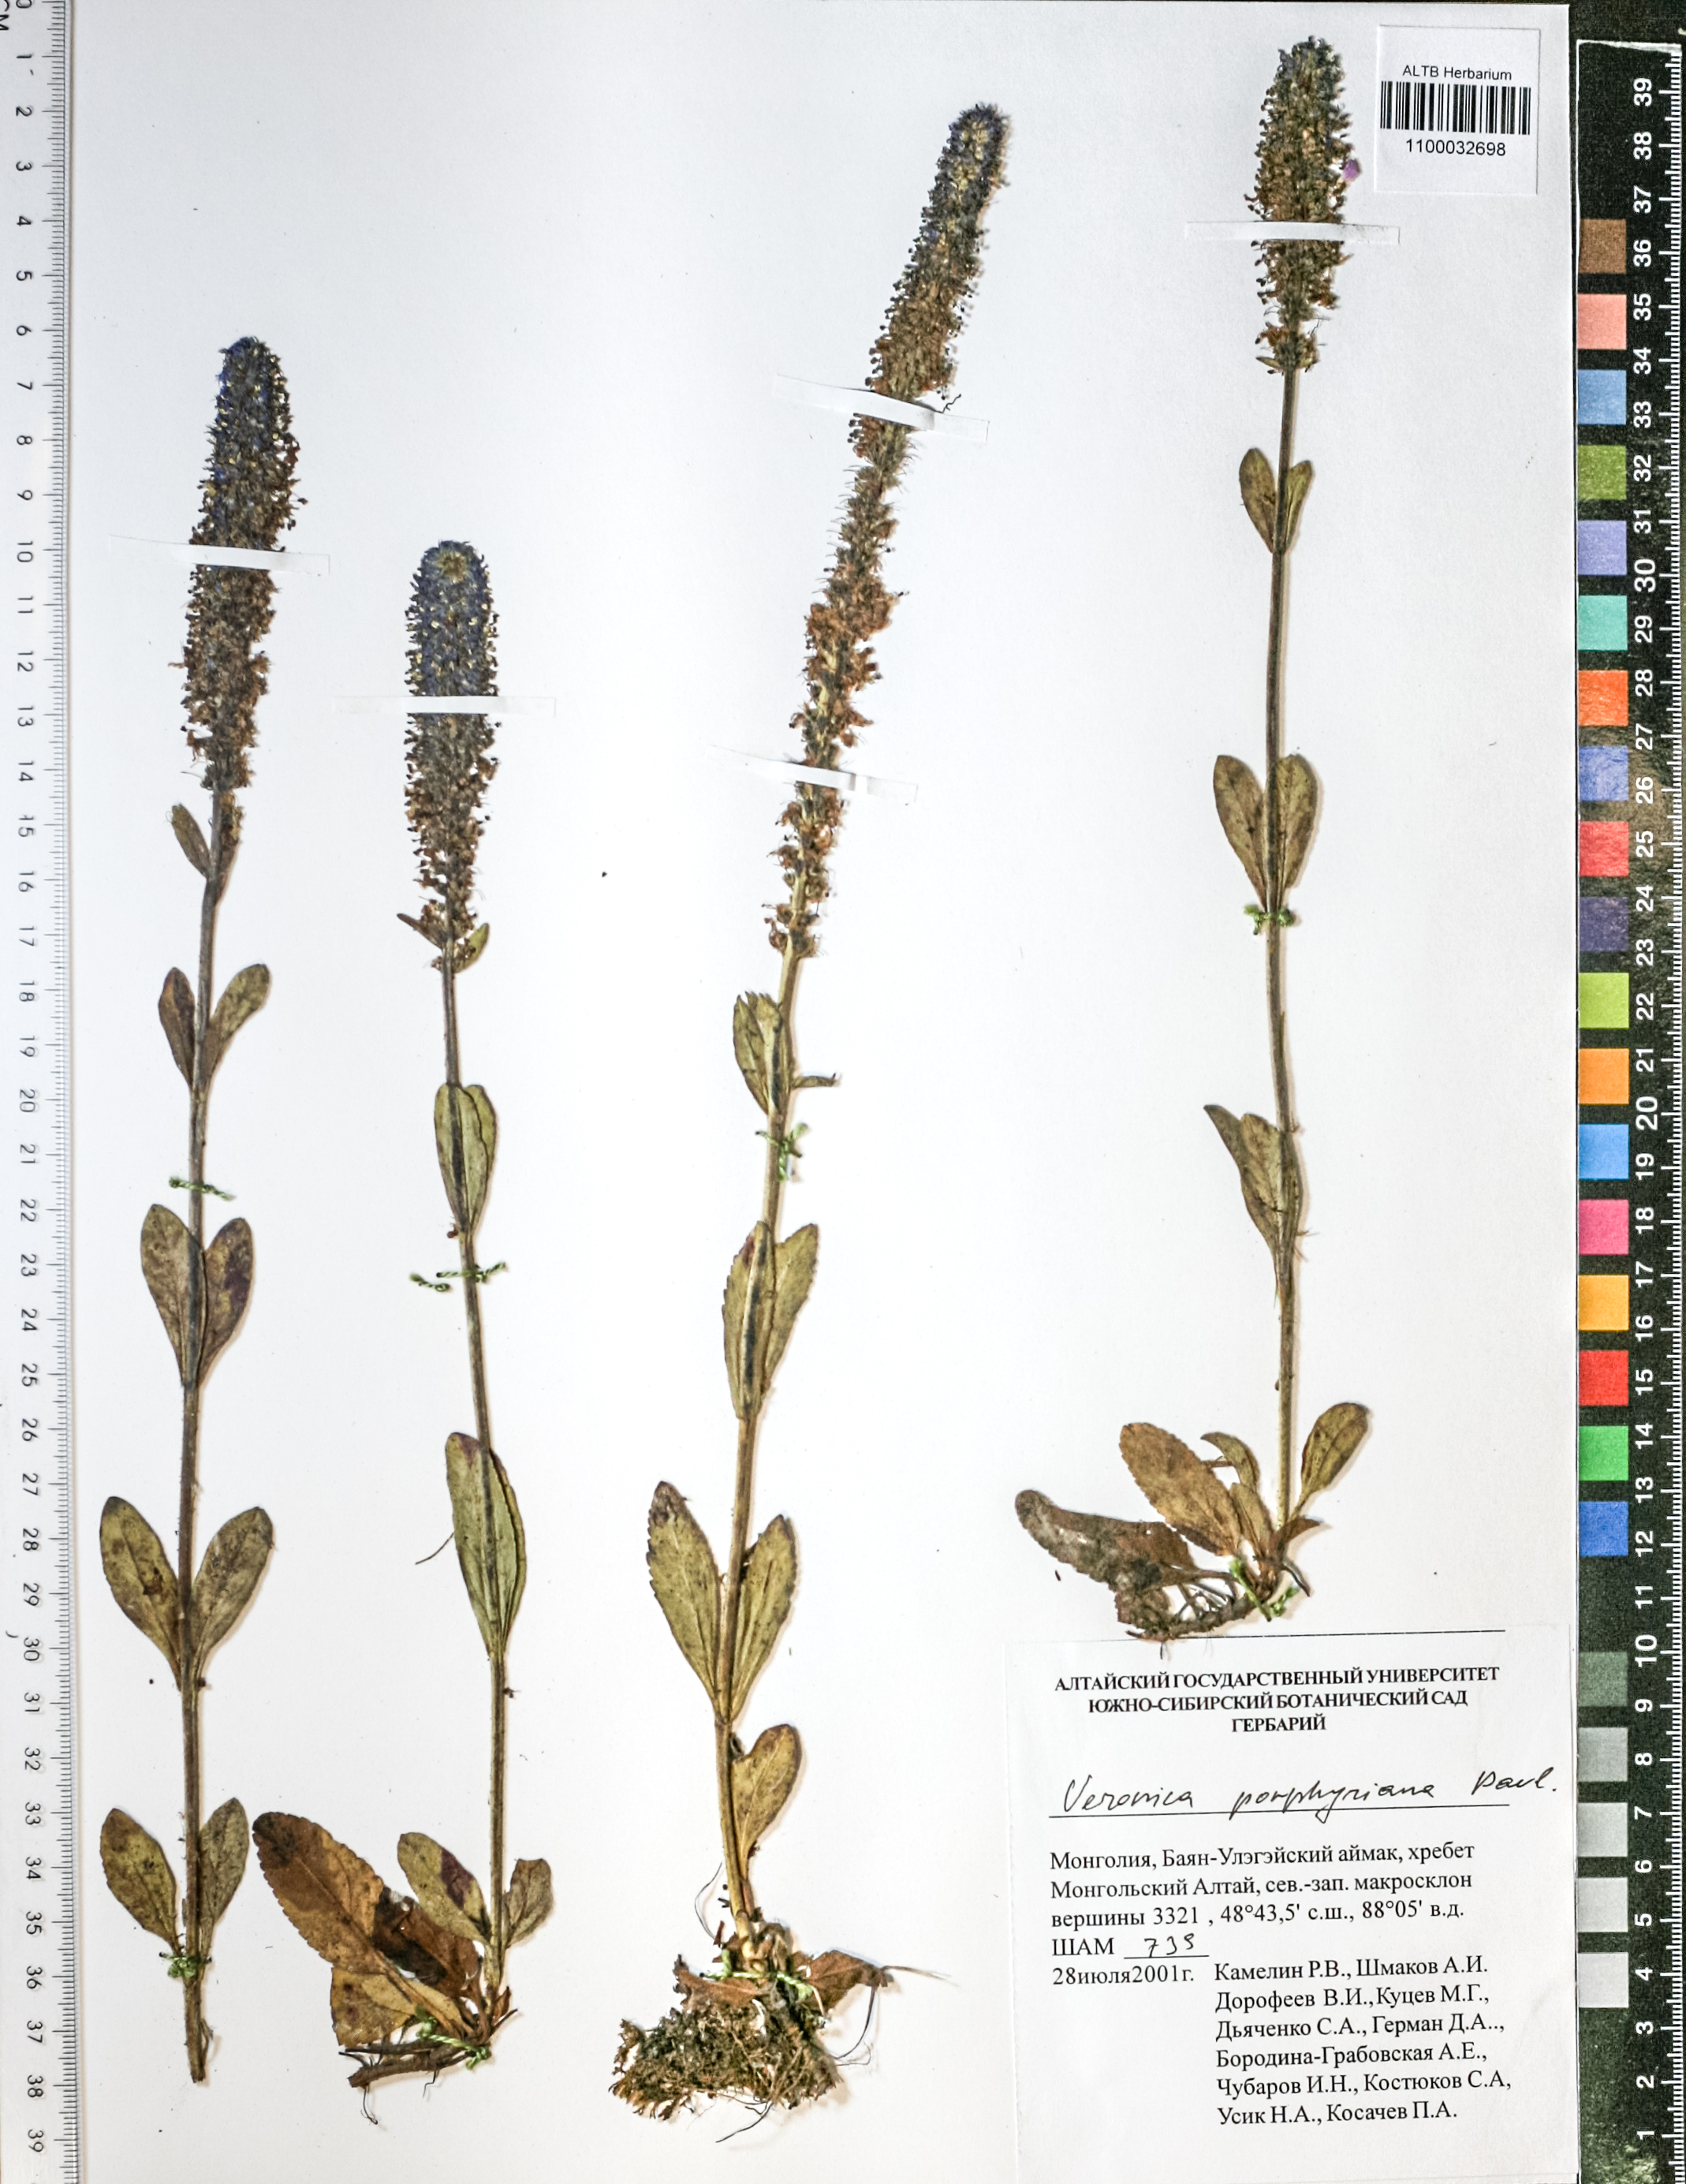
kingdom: Plantae
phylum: Tracheophyta
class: Magnoliopsida
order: Lamiales
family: Plantaginaceae
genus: Veronica
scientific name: Veronica porphyriana
